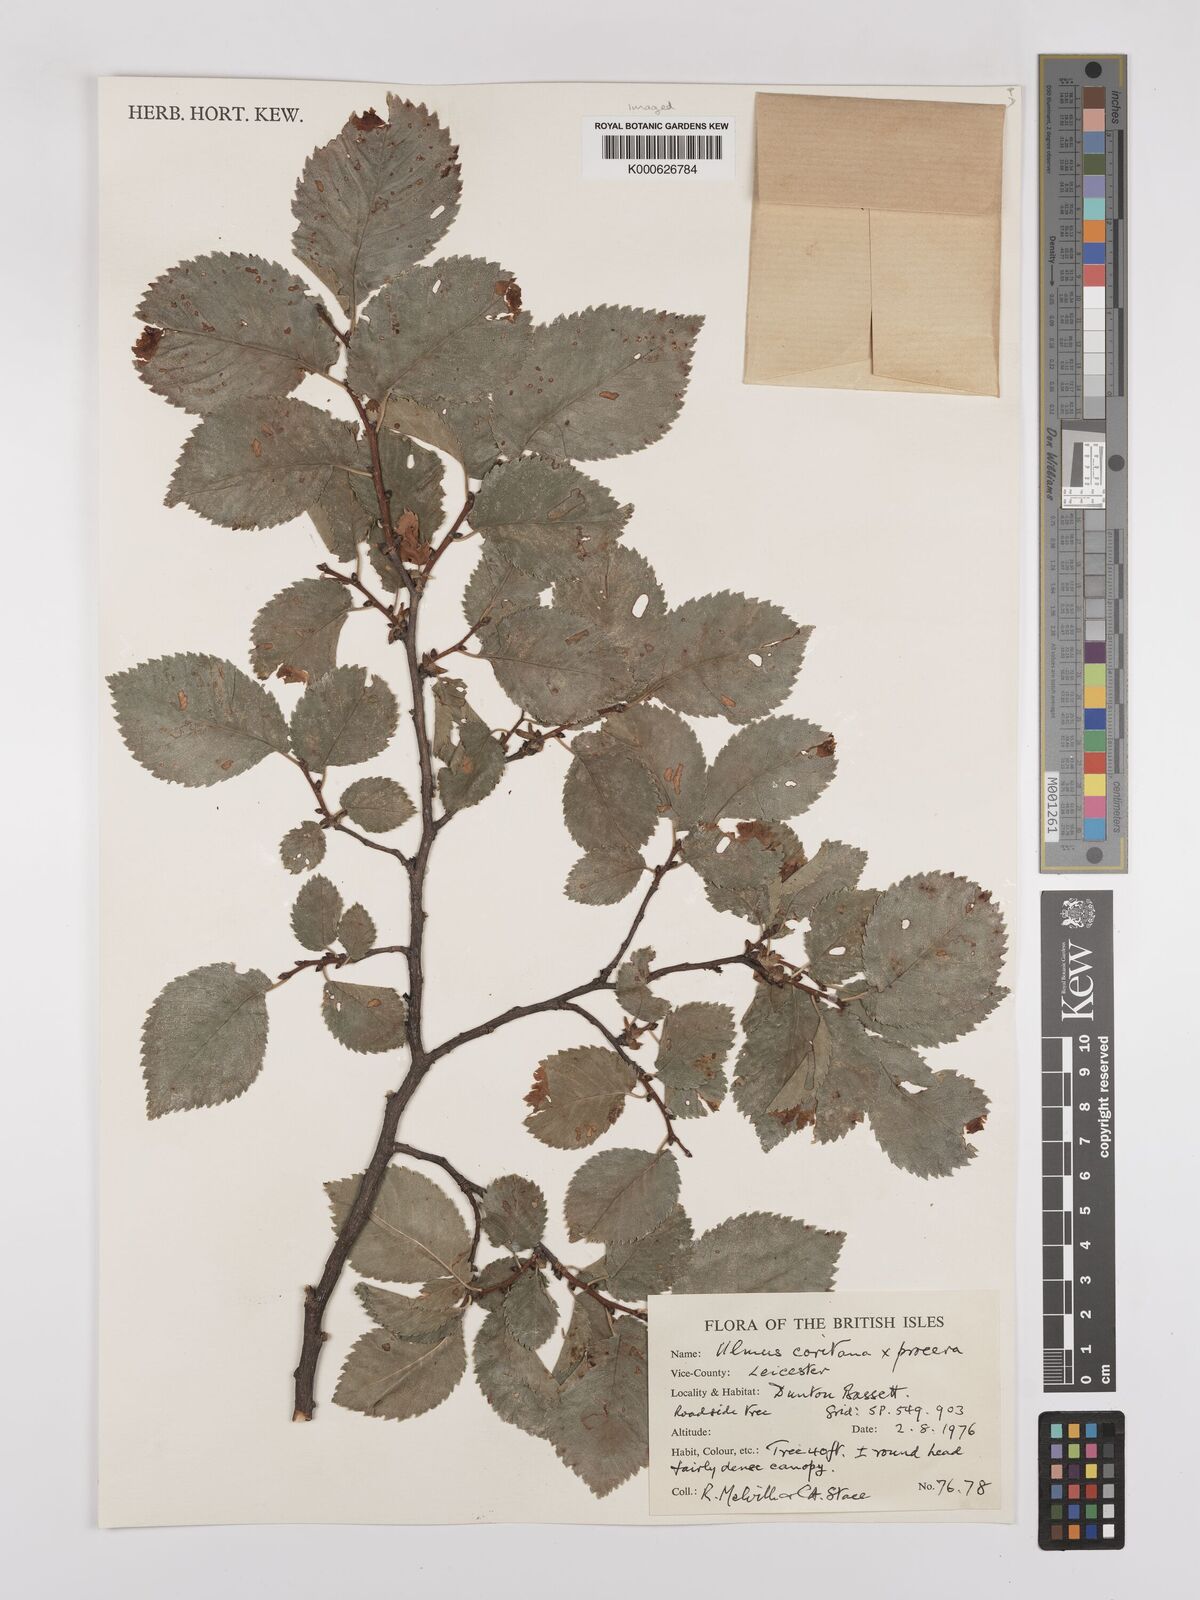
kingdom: Plantae
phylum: Tracheophyta
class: Magnoliopsida
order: Rosales
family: Ulmaceae
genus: Ulmus
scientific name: Ulmus
